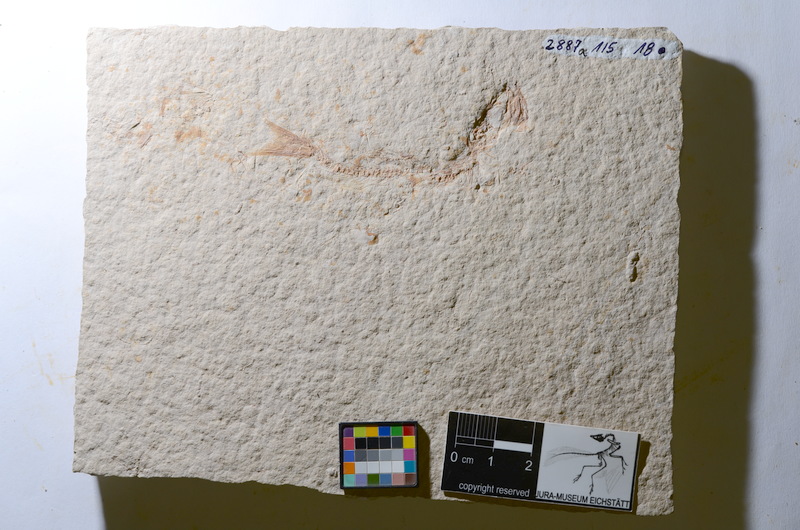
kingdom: Animalia
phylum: Chordata
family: Ascalaboidae
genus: Tharsis
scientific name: Tharsis dubius
